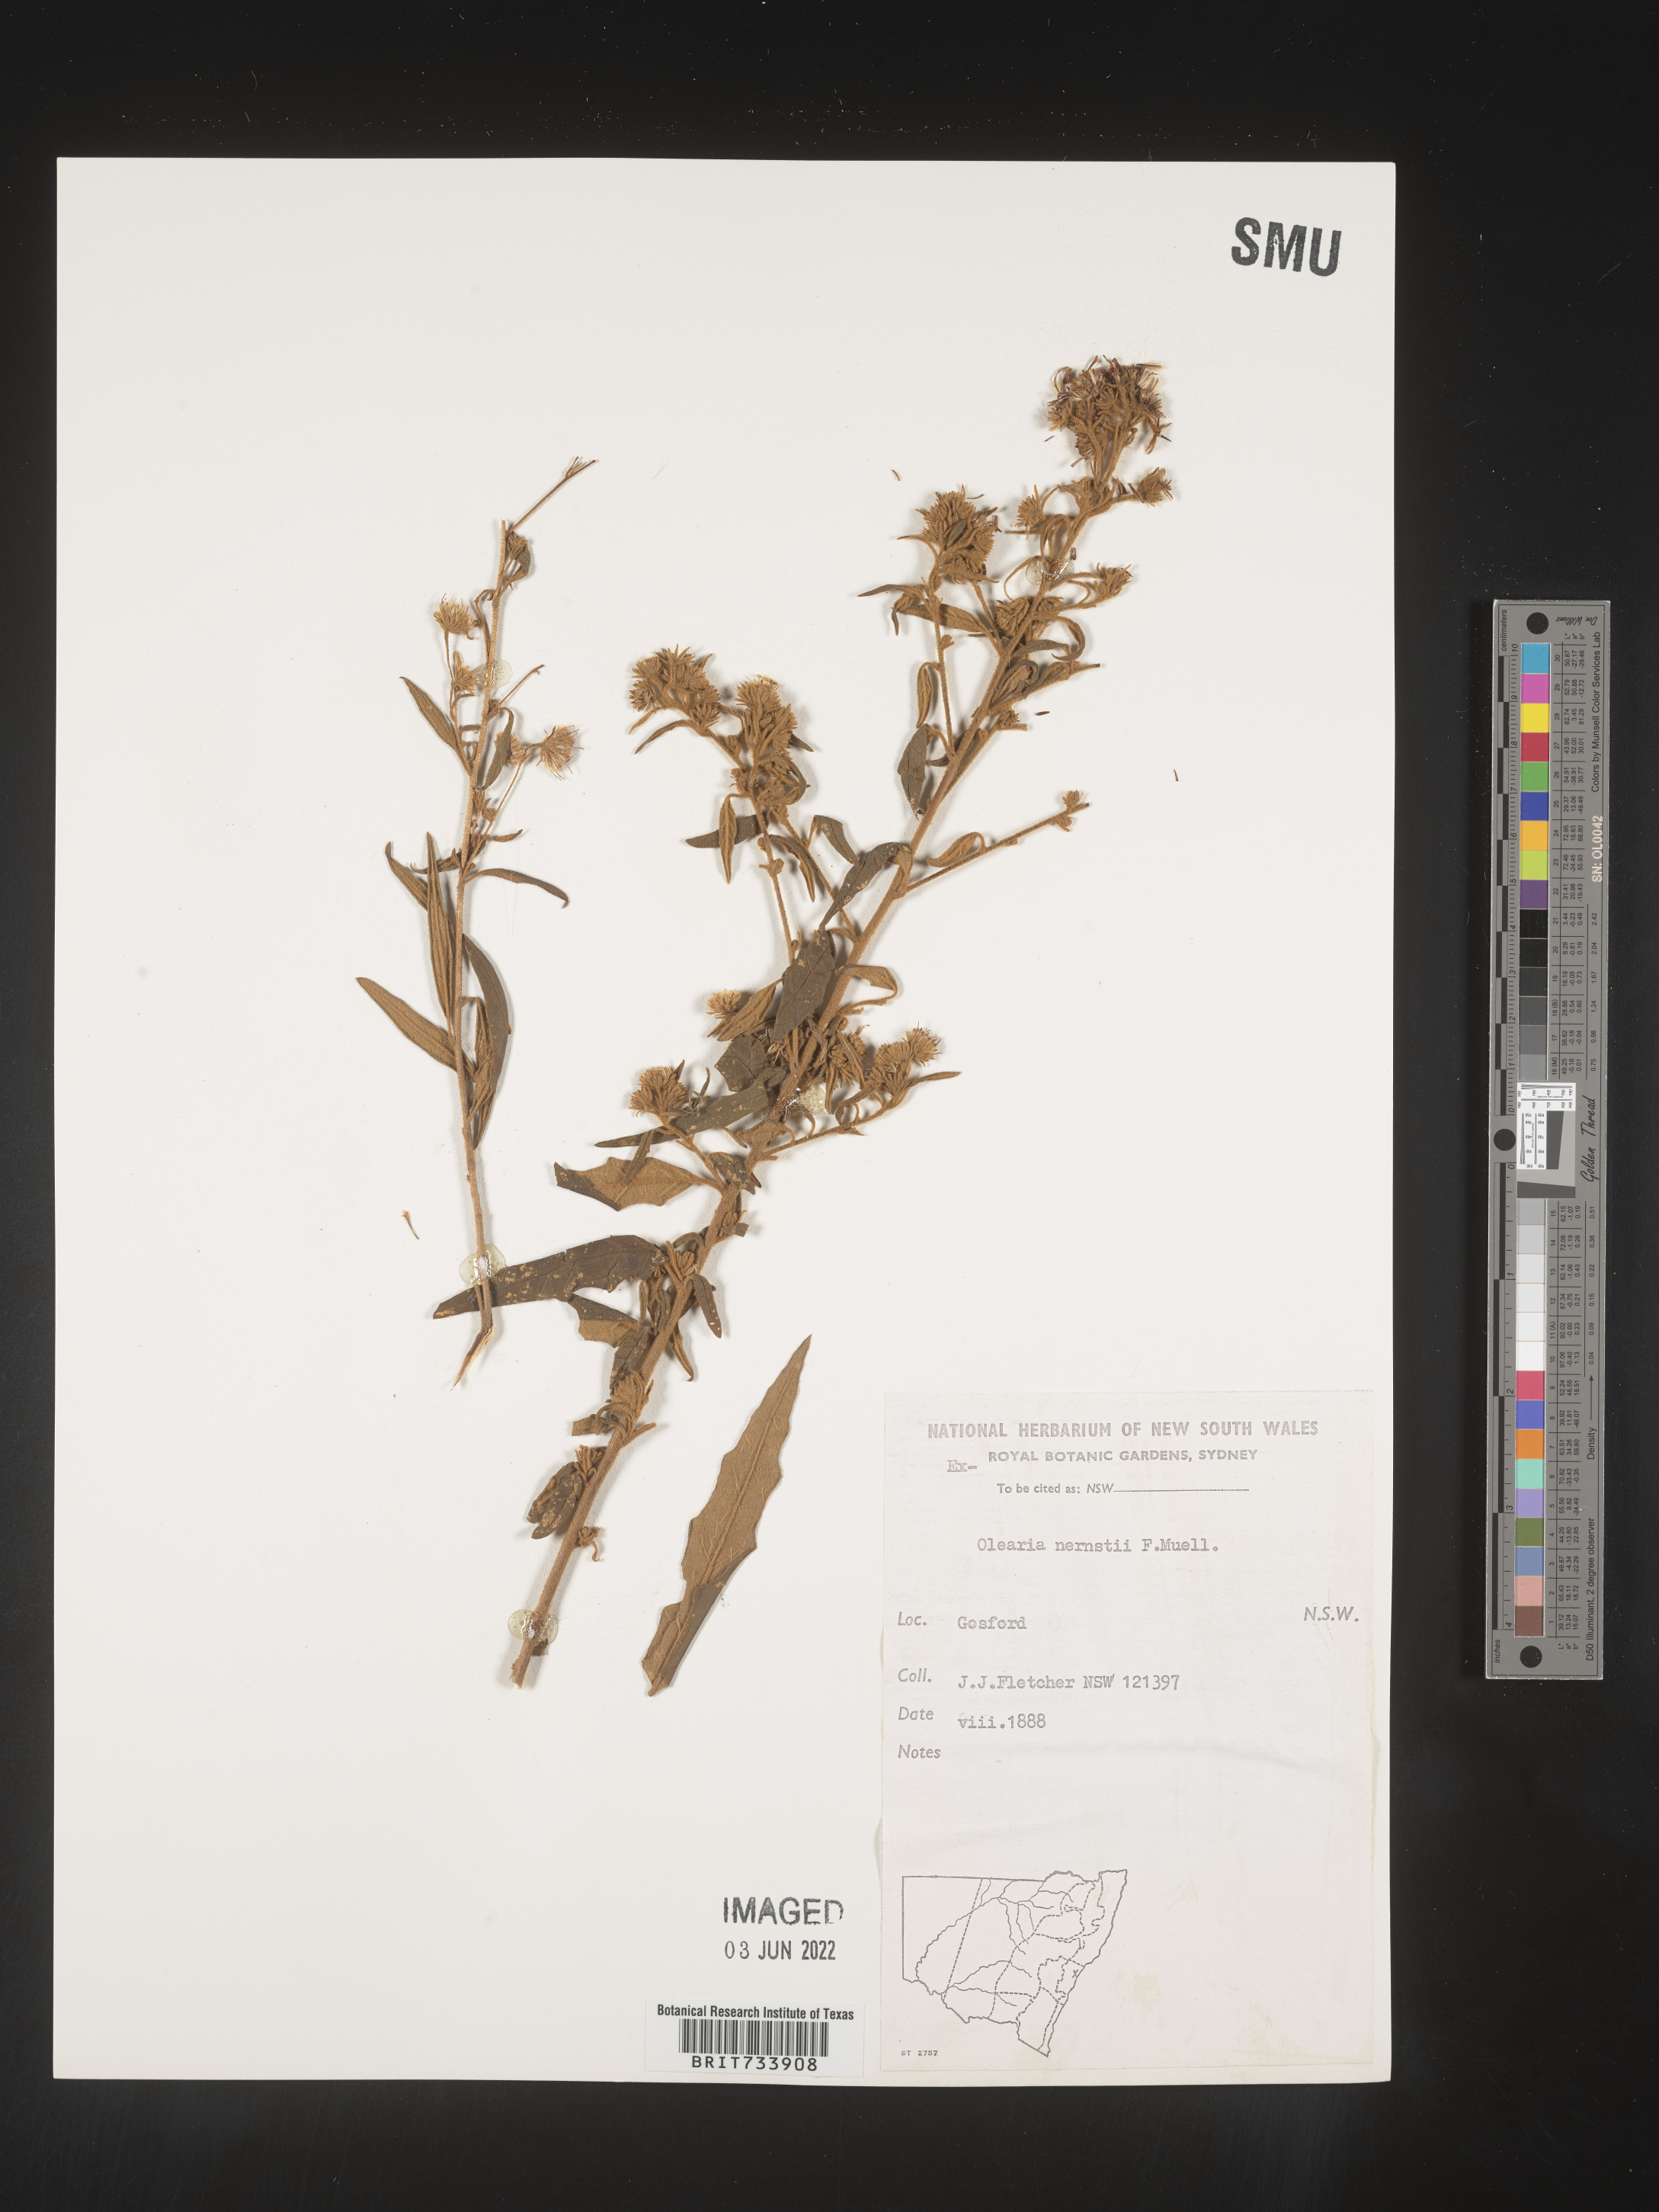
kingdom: Plantae
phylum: Tracheophyta
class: Magnoliopsida
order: Asterales
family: Asteraceae
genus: Olearia
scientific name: Olearia
